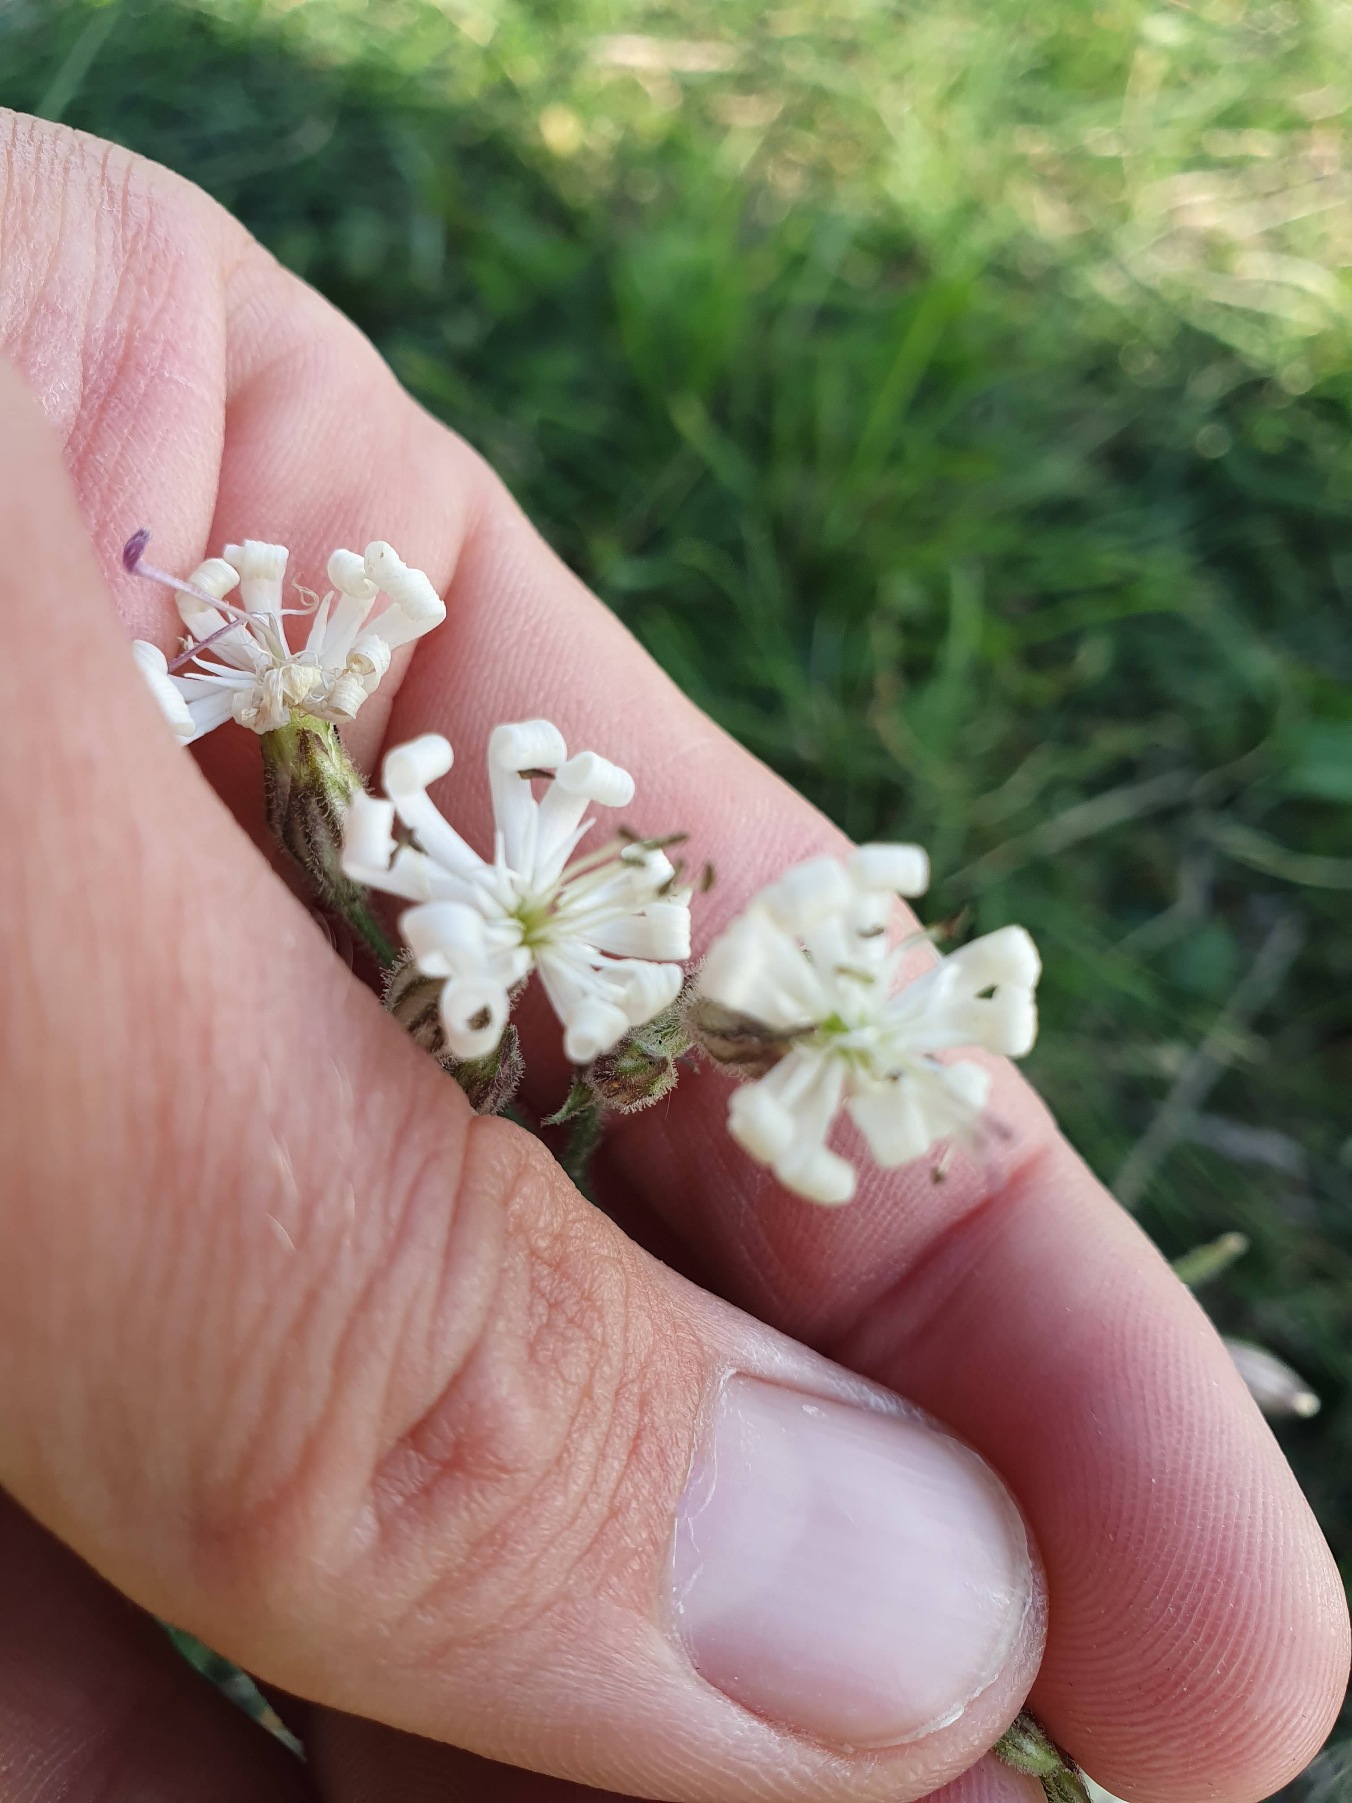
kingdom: Plantae
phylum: Tracheophyta
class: Magnoliopsida
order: Caryophyllales
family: Caryophyllaceae
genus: Silene
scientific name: Silene nutans
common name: Nikkende limurt
